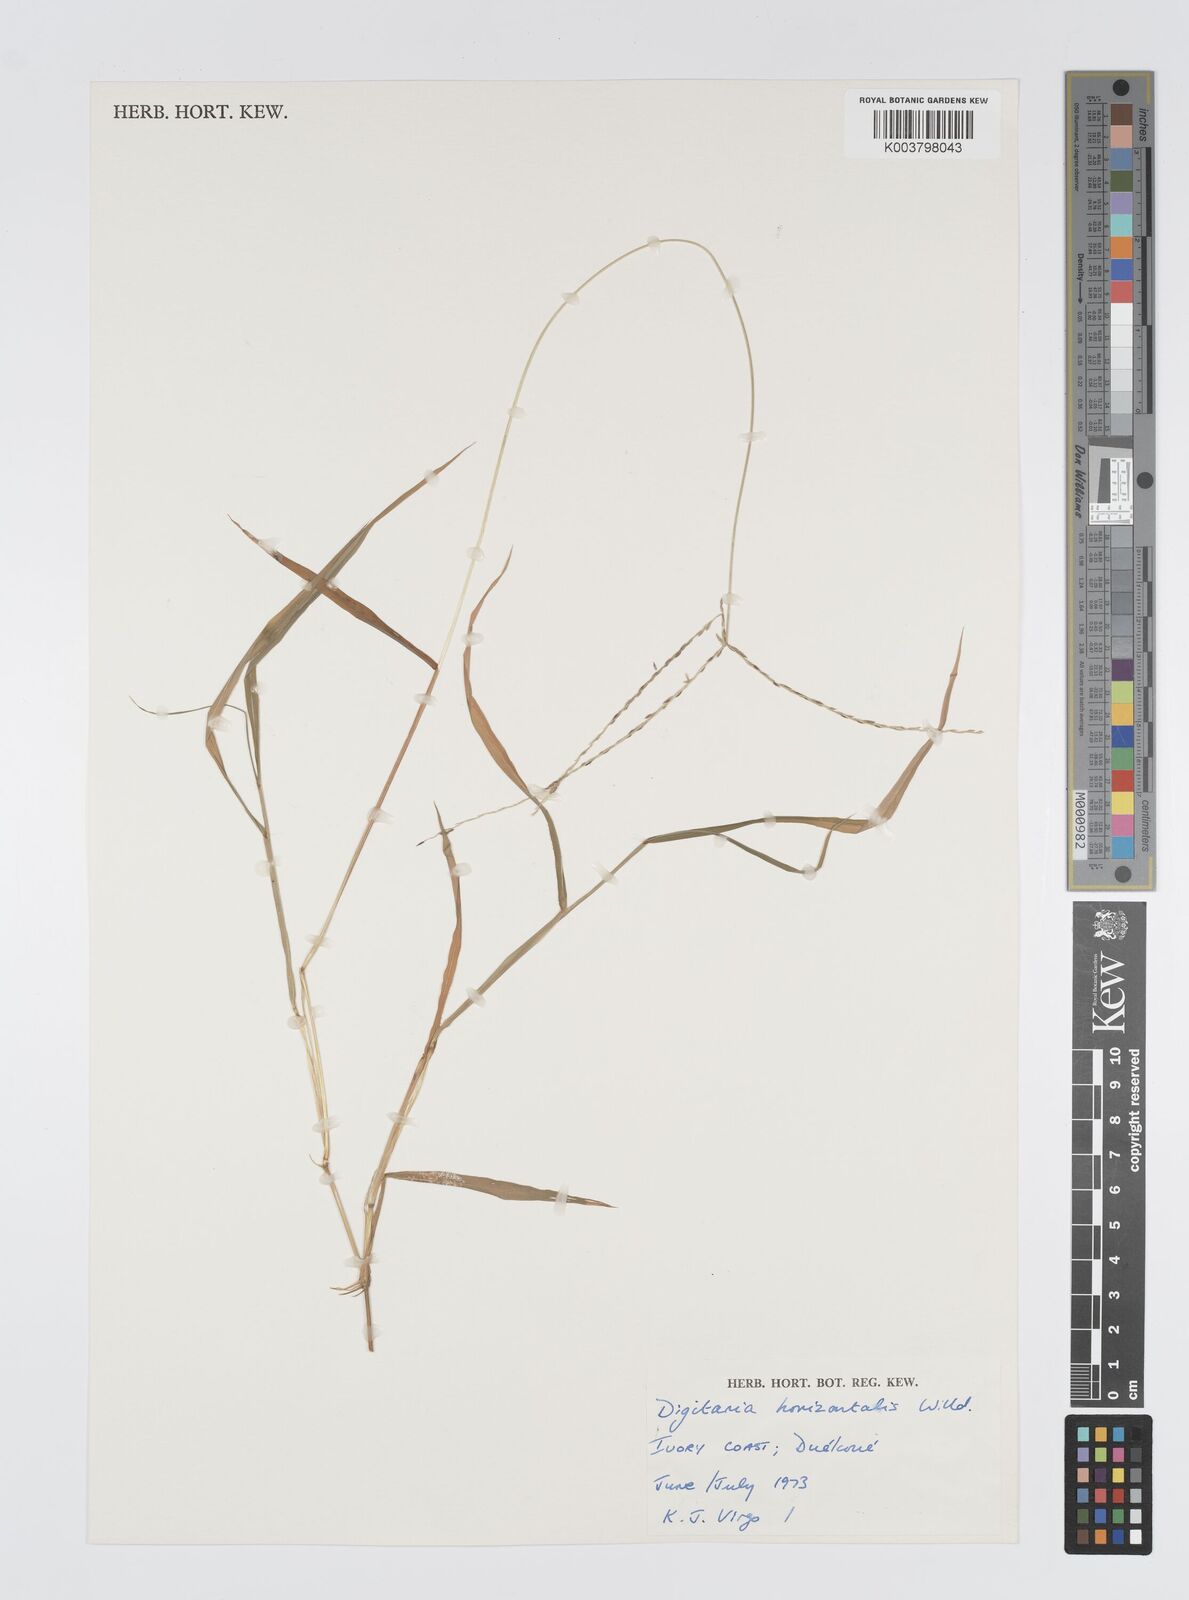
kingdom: Plantae
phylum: Tracheophyta
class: Liliopsida
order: Poales
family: Poaceae
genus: Digitaria
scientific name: Digitaria horizontalis
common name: Jamaican crabgrass
